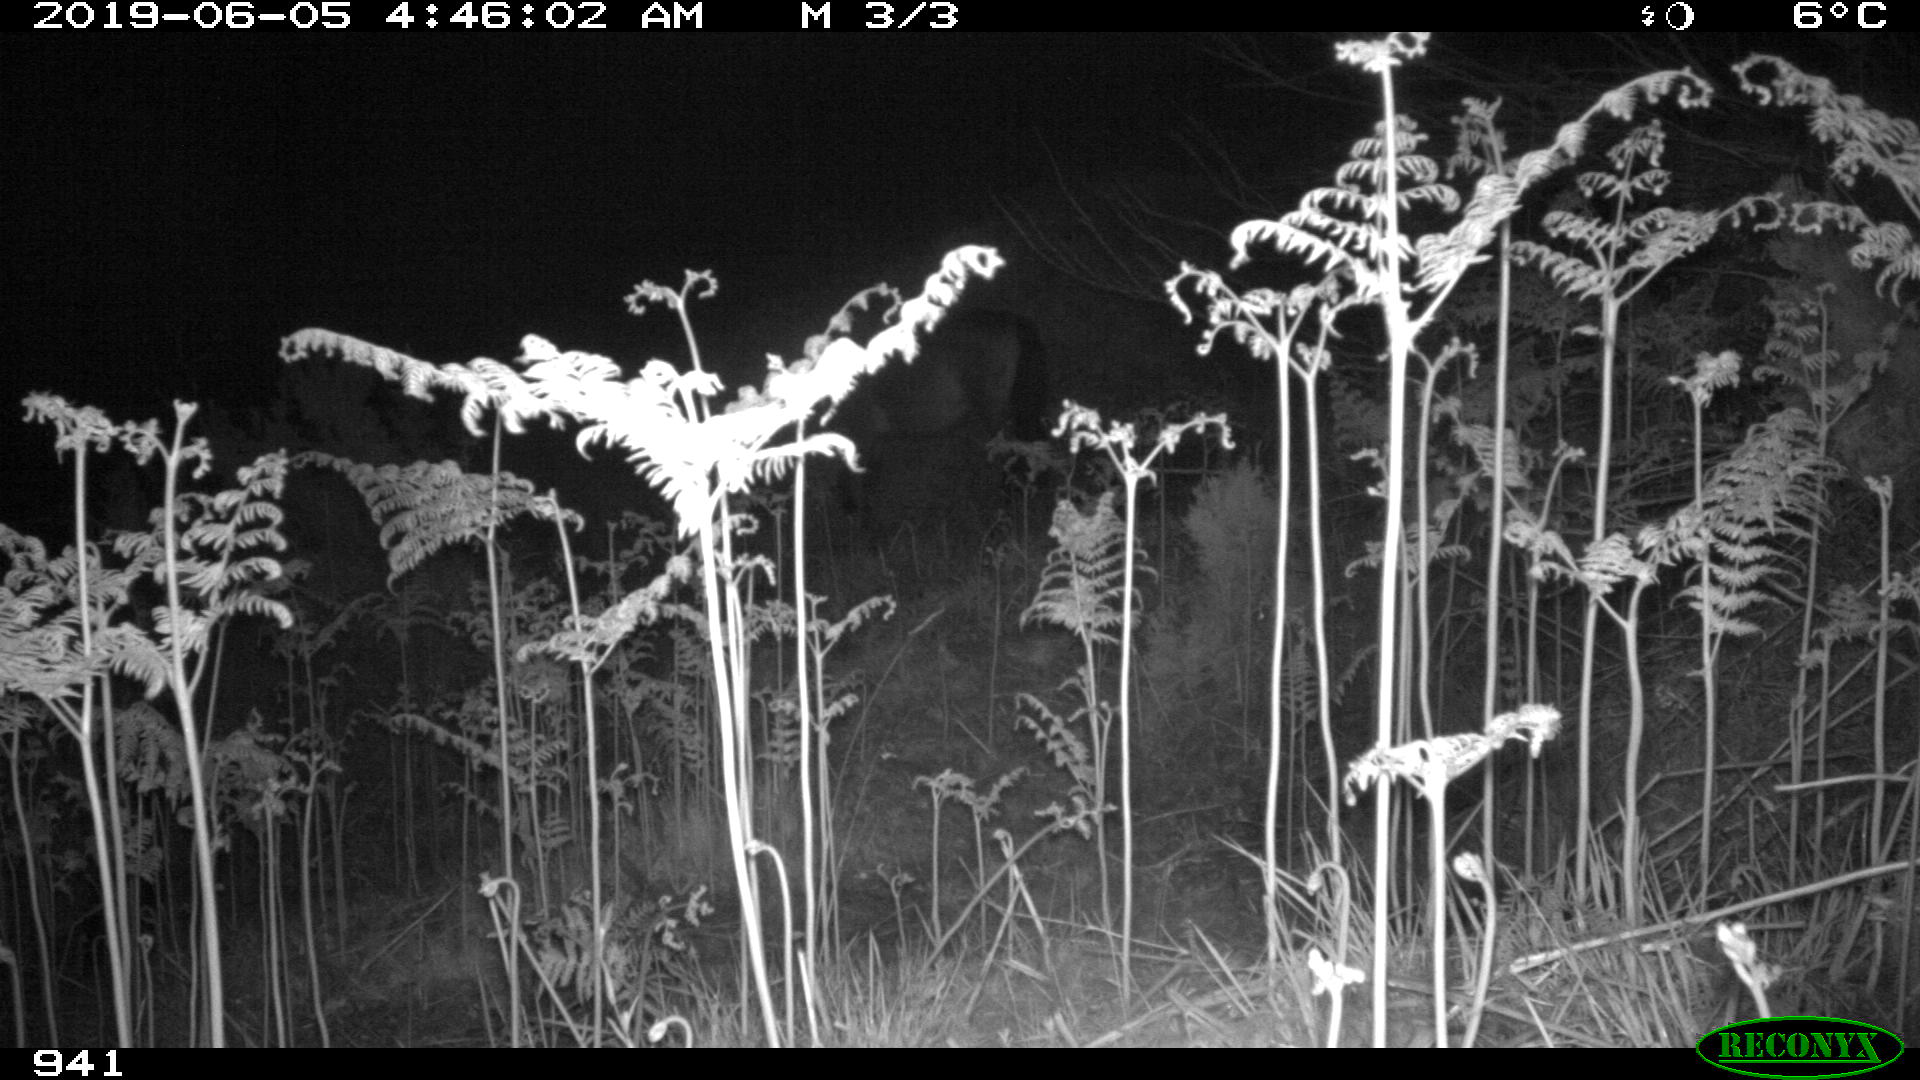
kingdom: Animalia
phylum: Chordata
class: Mammalia
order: Perissodactyla
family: Equidae
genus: Equus
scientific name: Equus caballus
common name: Horse
